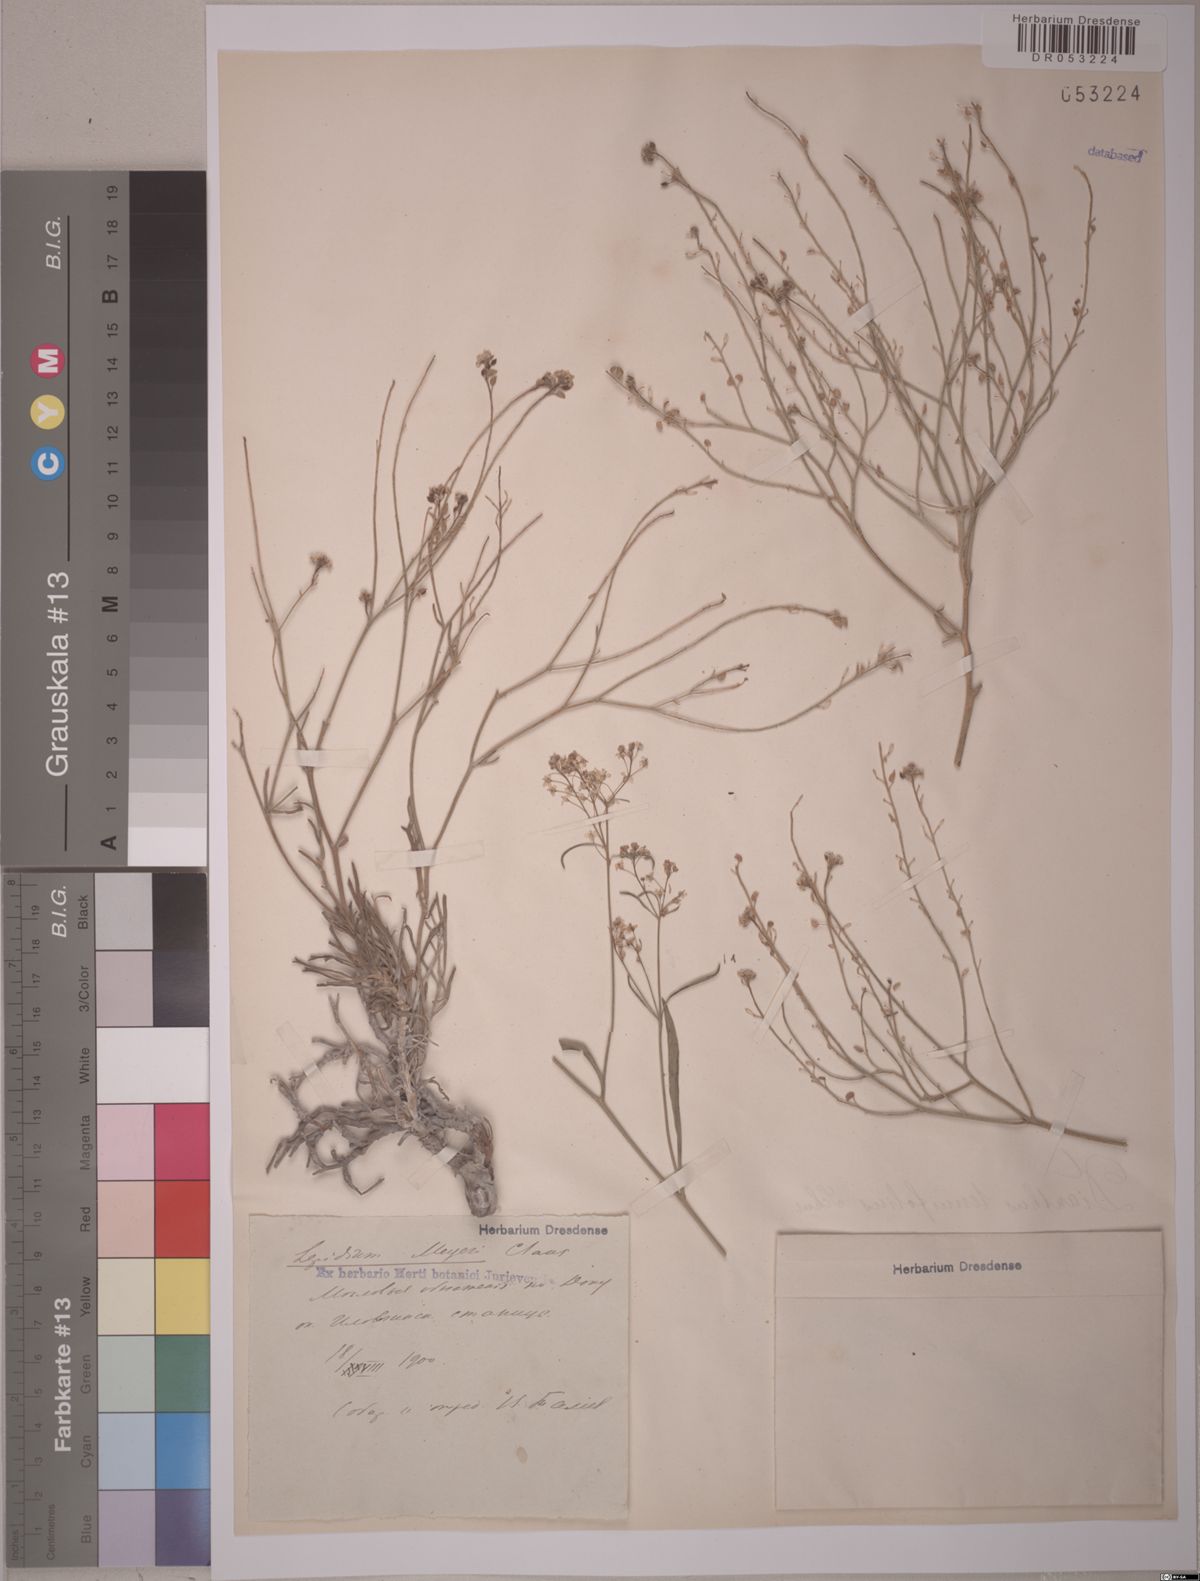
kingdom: Plantae
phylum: Tracheophyta
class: Magnoliopsida
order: Brassicales
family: Brassicaceae
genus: Lepidium
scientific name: Lepidium meyeri
